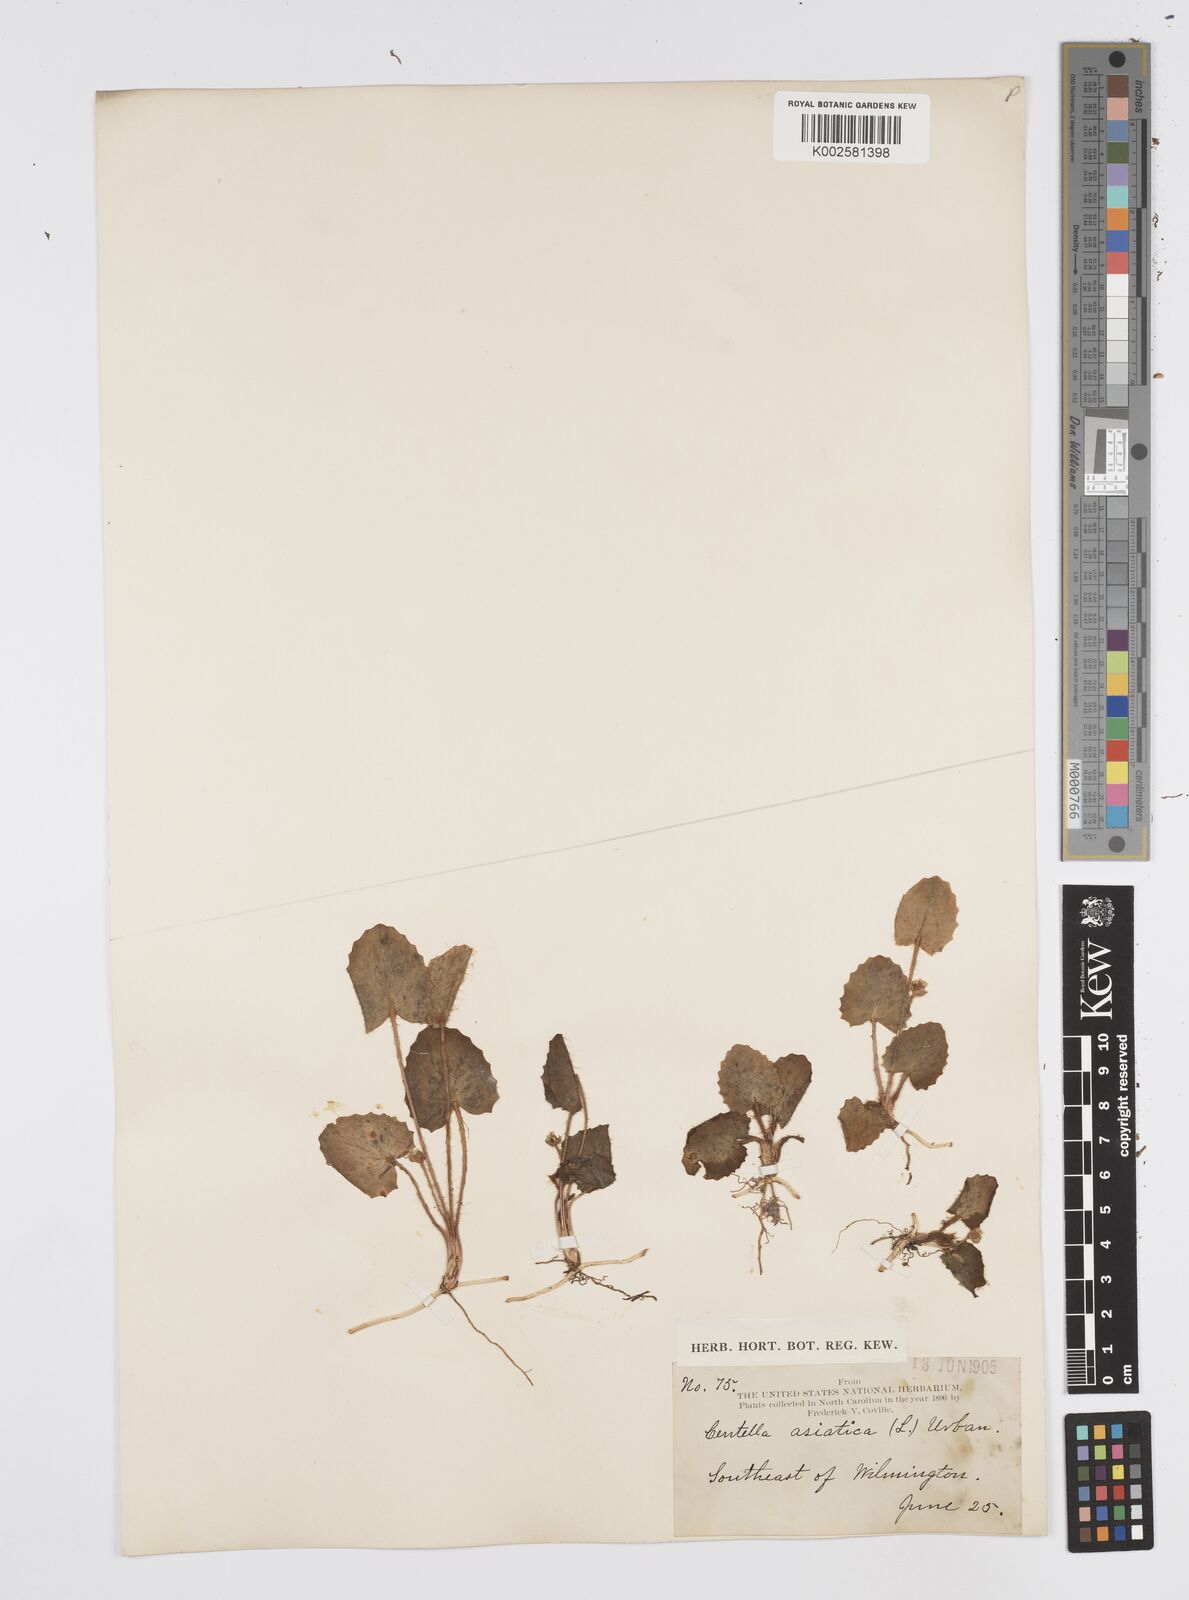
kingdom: Plantae
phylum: Tracheophyta
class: Magnoliopsida
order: Apiales
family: Apiaceae
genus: Centella
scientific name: Centella erecta
